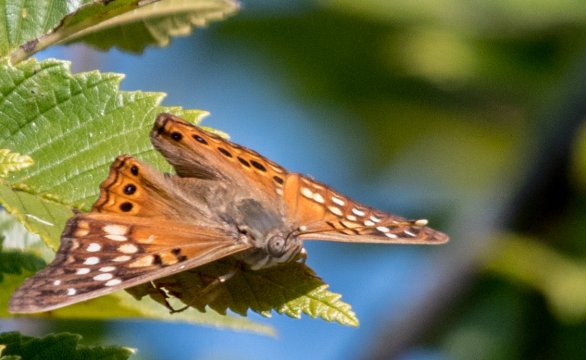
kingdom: Animalia
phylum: Arthropoda
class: Insecta
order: Lepidoptera
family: Nymphalidae
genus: Asterocampa
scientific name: Asterocampa clyton
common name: Tawny Emperor
